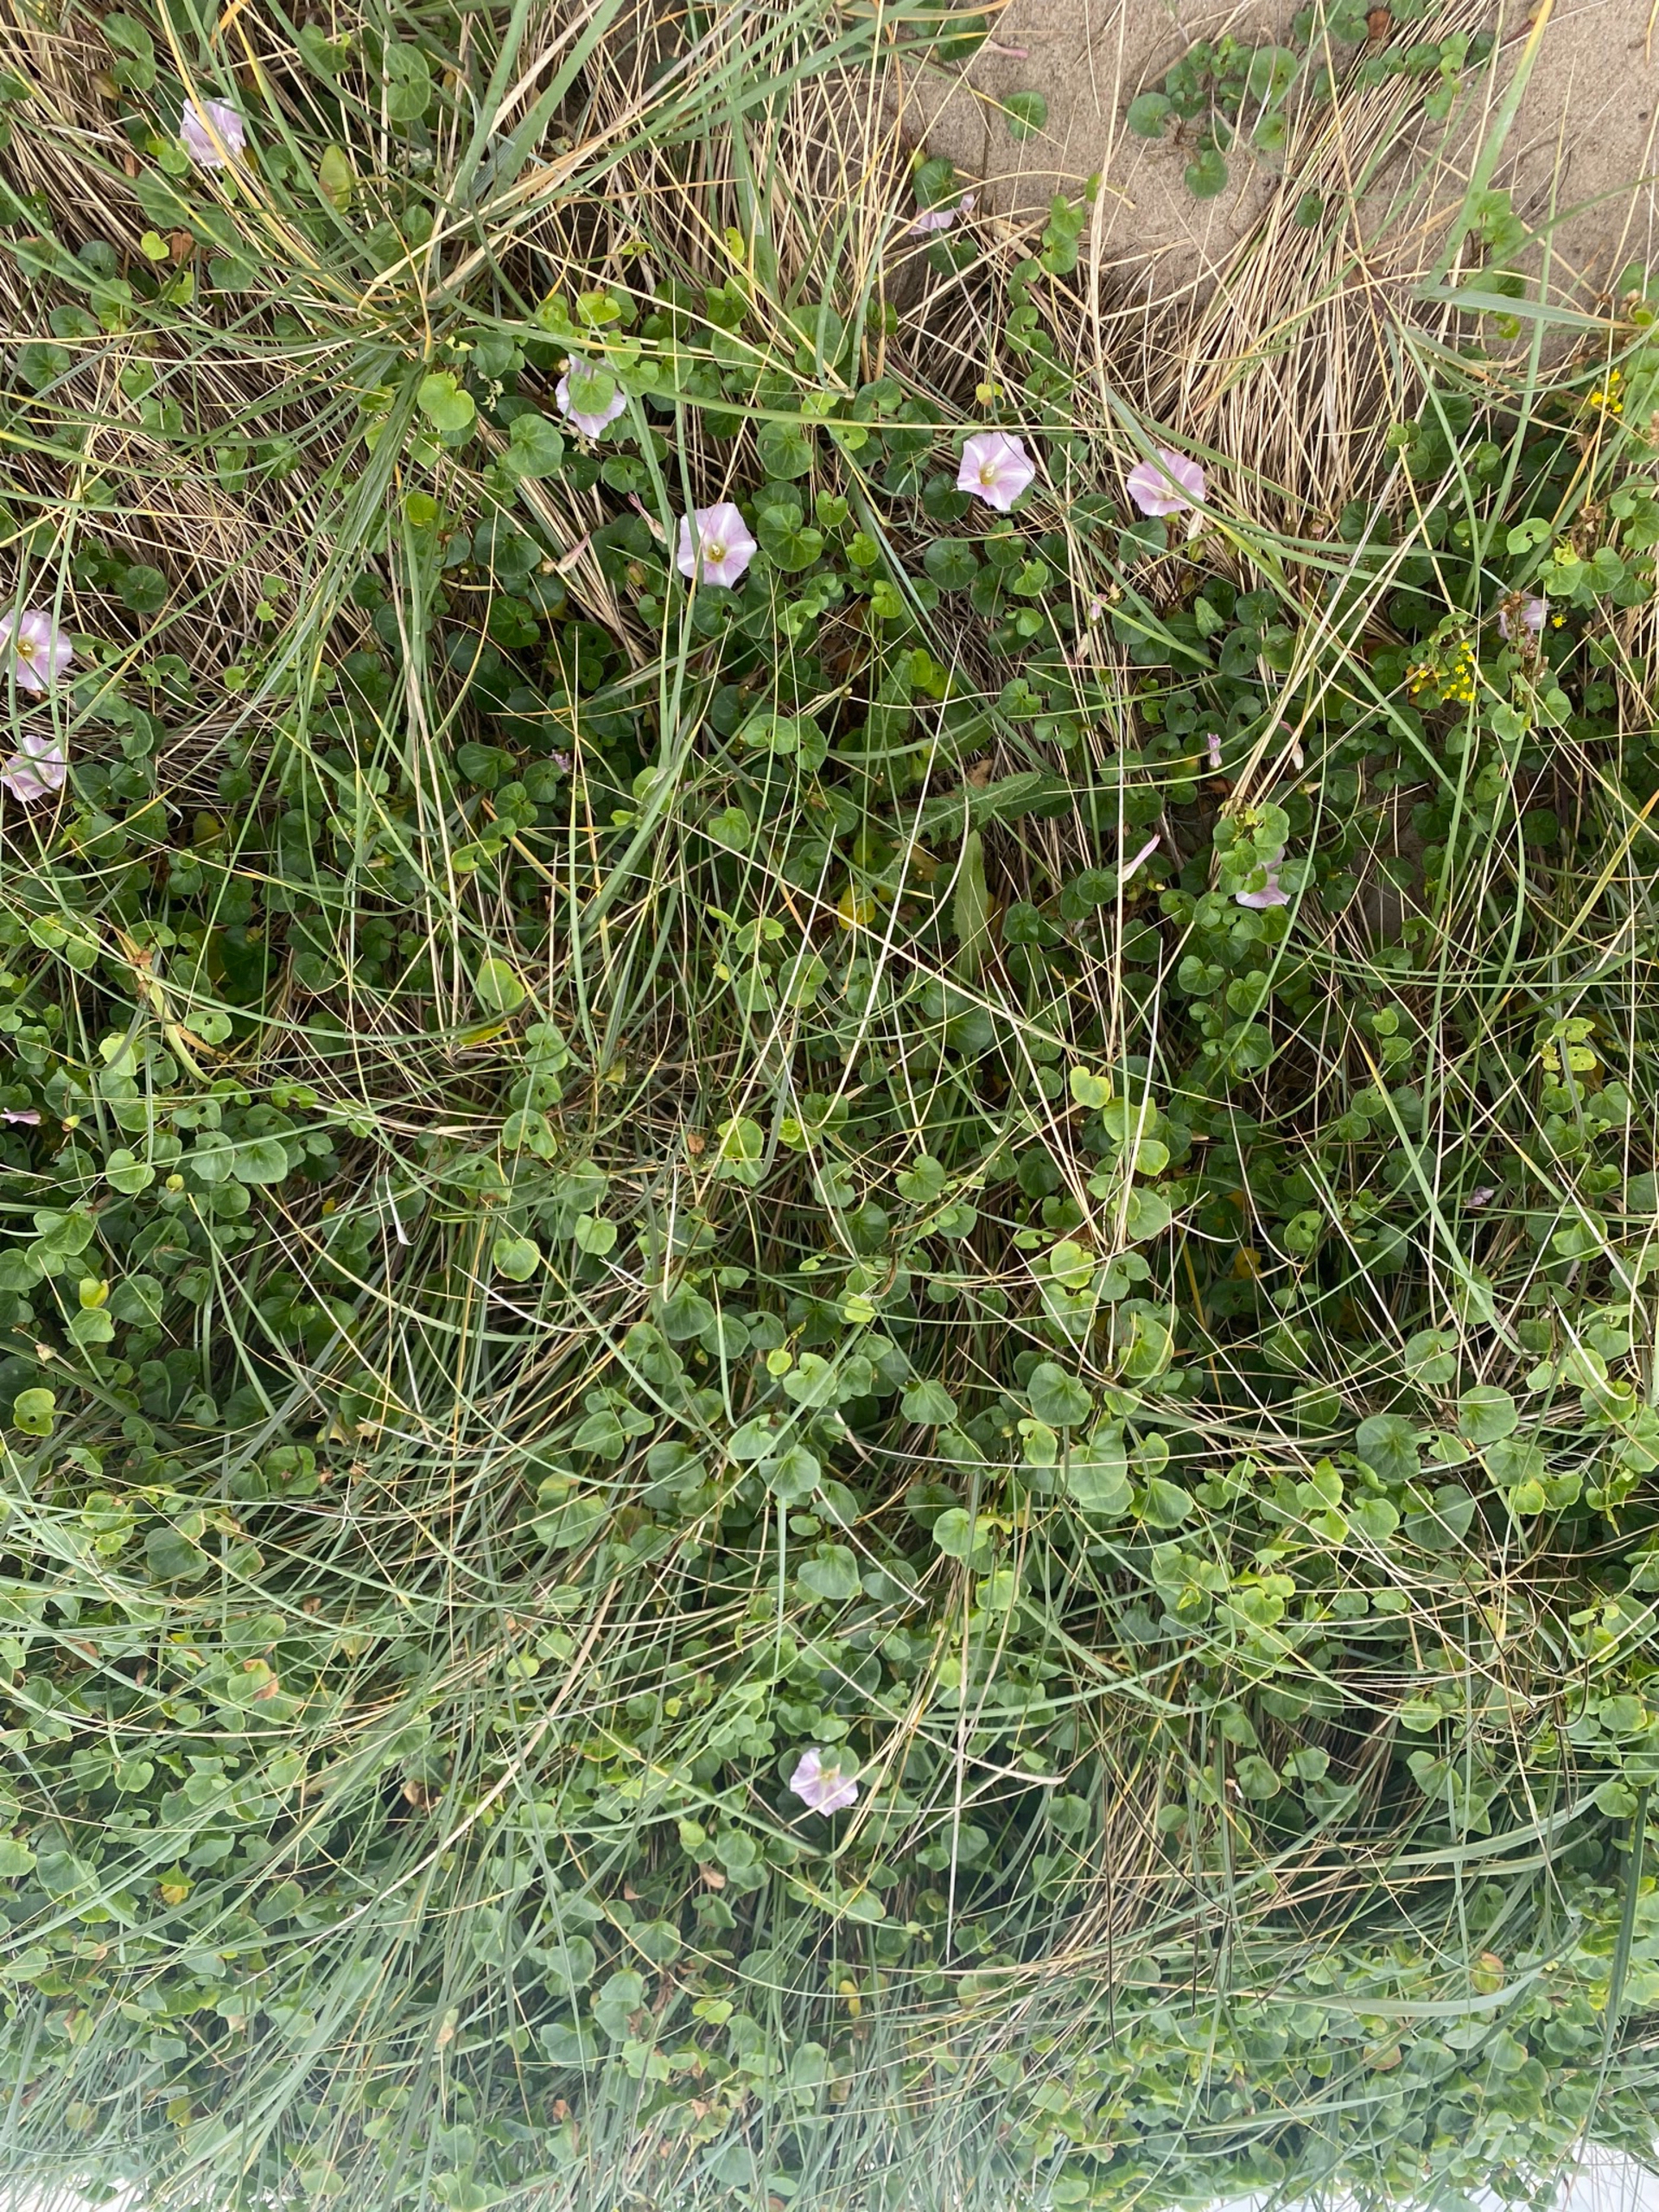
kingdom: Plantae
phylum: Tracheophyta
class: Magnoliopsida
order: Solanales
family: Convolvulaceae
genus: Calystegia
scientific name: Calystegia soldanella
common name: Strand-snerle
